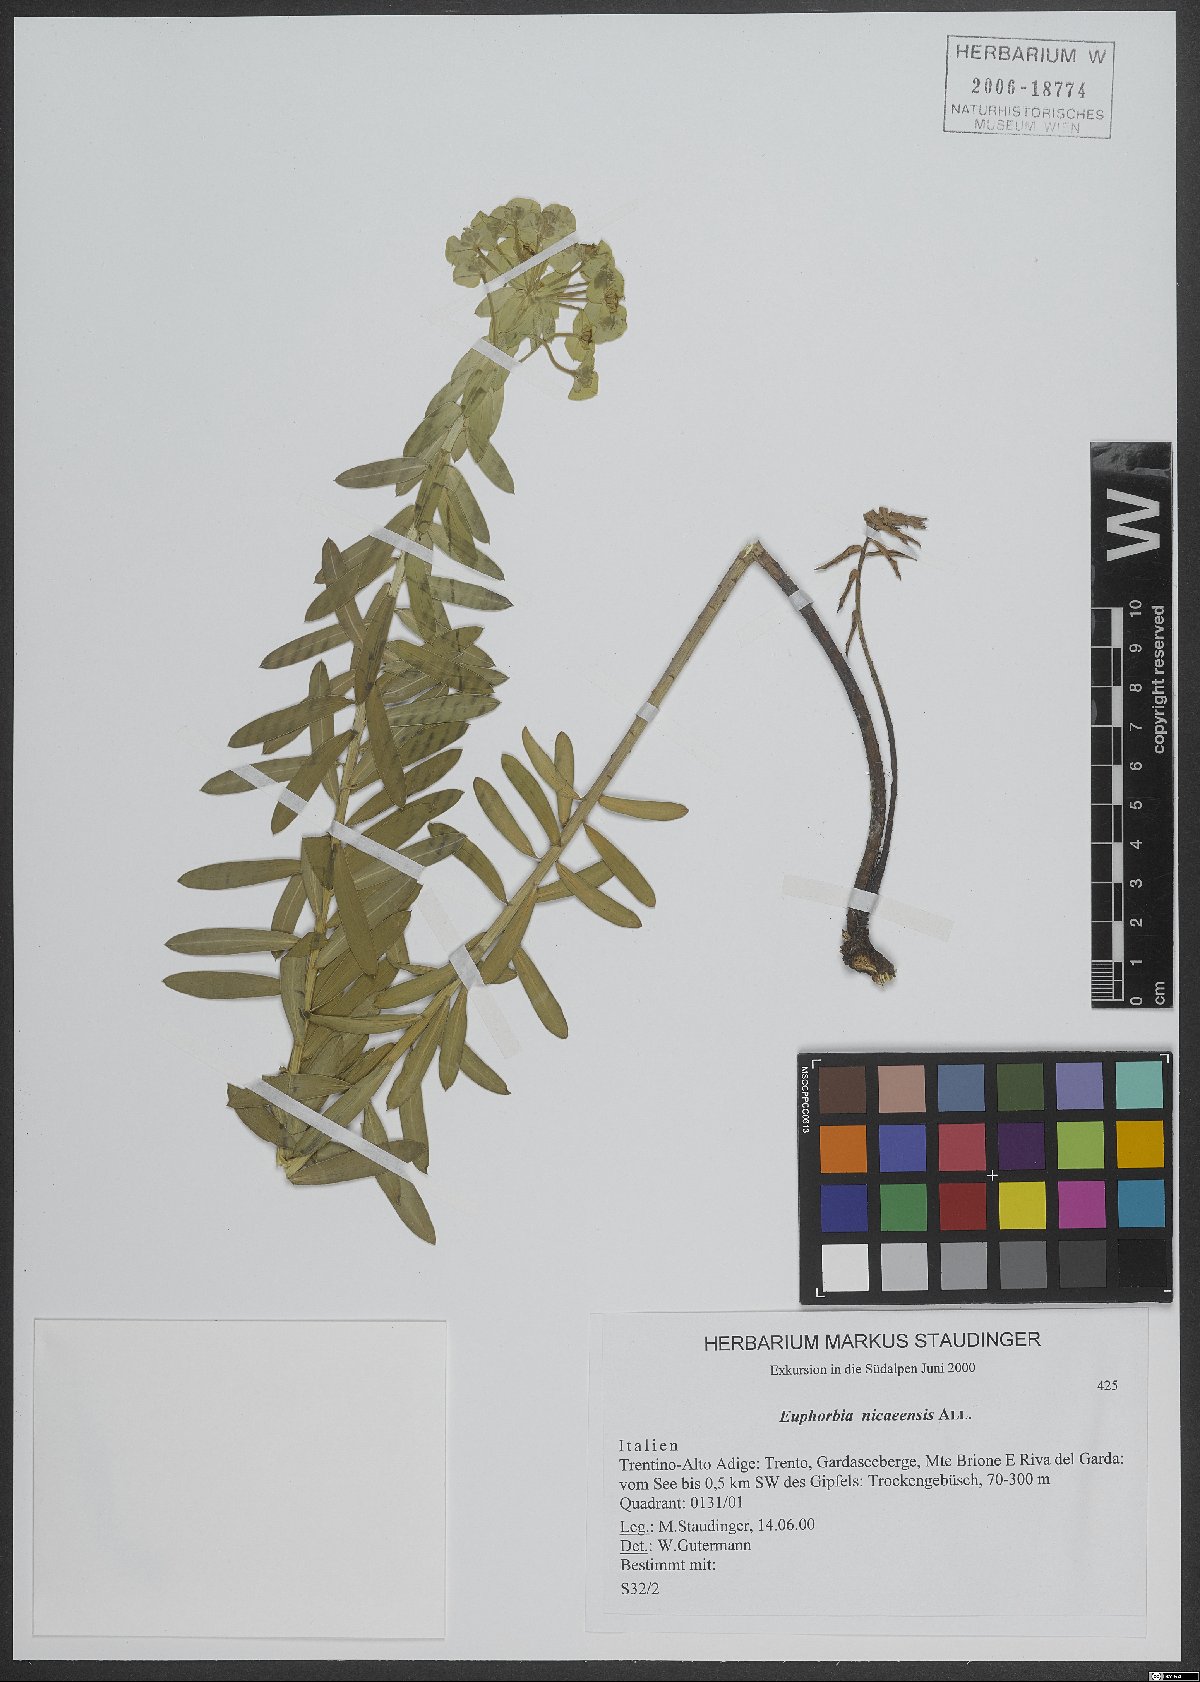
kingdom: Plantae
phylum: Tracheophyta
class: Magnoliopsida
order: Malpighiales
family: Euphorbiaceae
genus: Euphorbia
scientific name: Euphorbia nicaeensis
